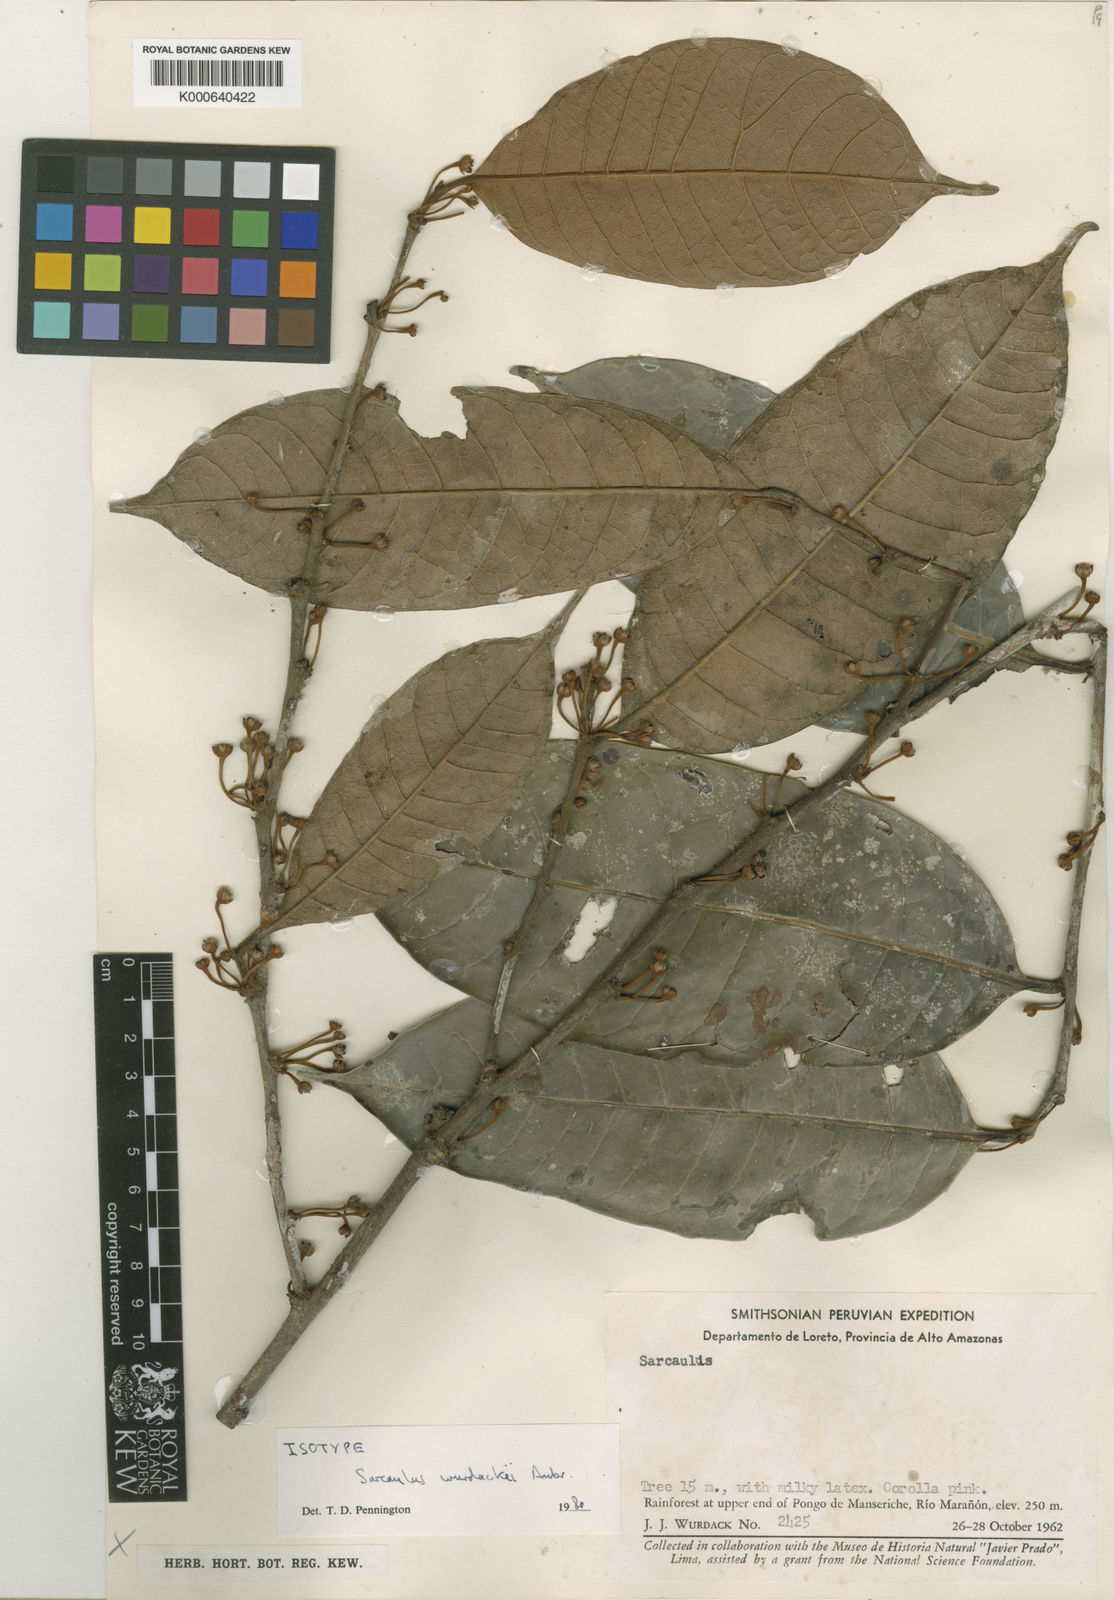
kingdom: Plantae
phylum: Tracheophyta
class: Magnoliopsida
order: Ericales
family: Sapotaceae
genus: Sarcaulus
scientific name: Sarcaulus
